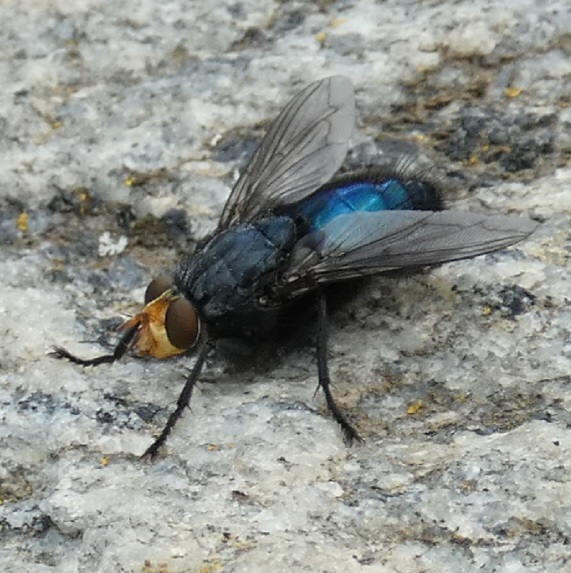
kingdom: Animalia
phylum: Arthropoda
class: Insecta
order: Diptera
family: Calliphoridae
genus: Cynomya
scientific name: Cynomya mortuorum
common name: Dødsflue
